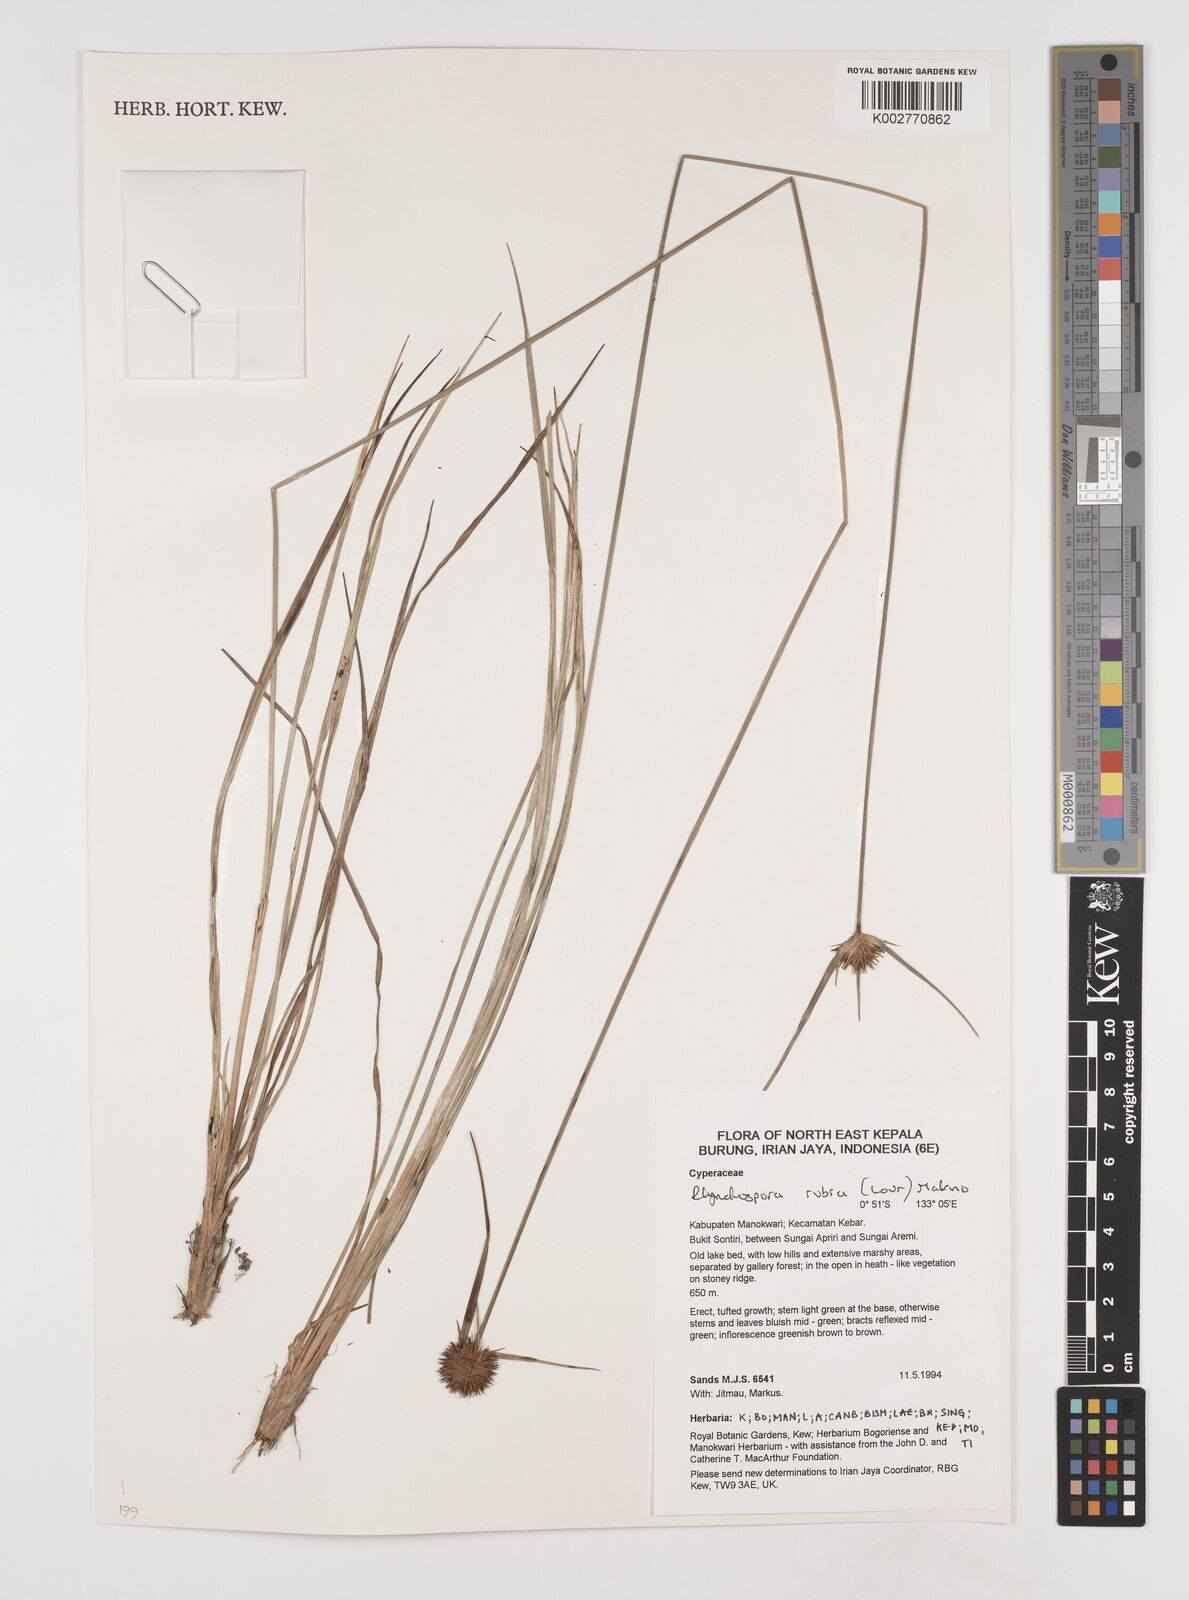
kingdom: Plantae
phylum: Tracheophyta
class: Liliopsida
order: Poales
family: Cyperaceae
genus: Rhynchospora
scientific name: Rhynchospora rubra
